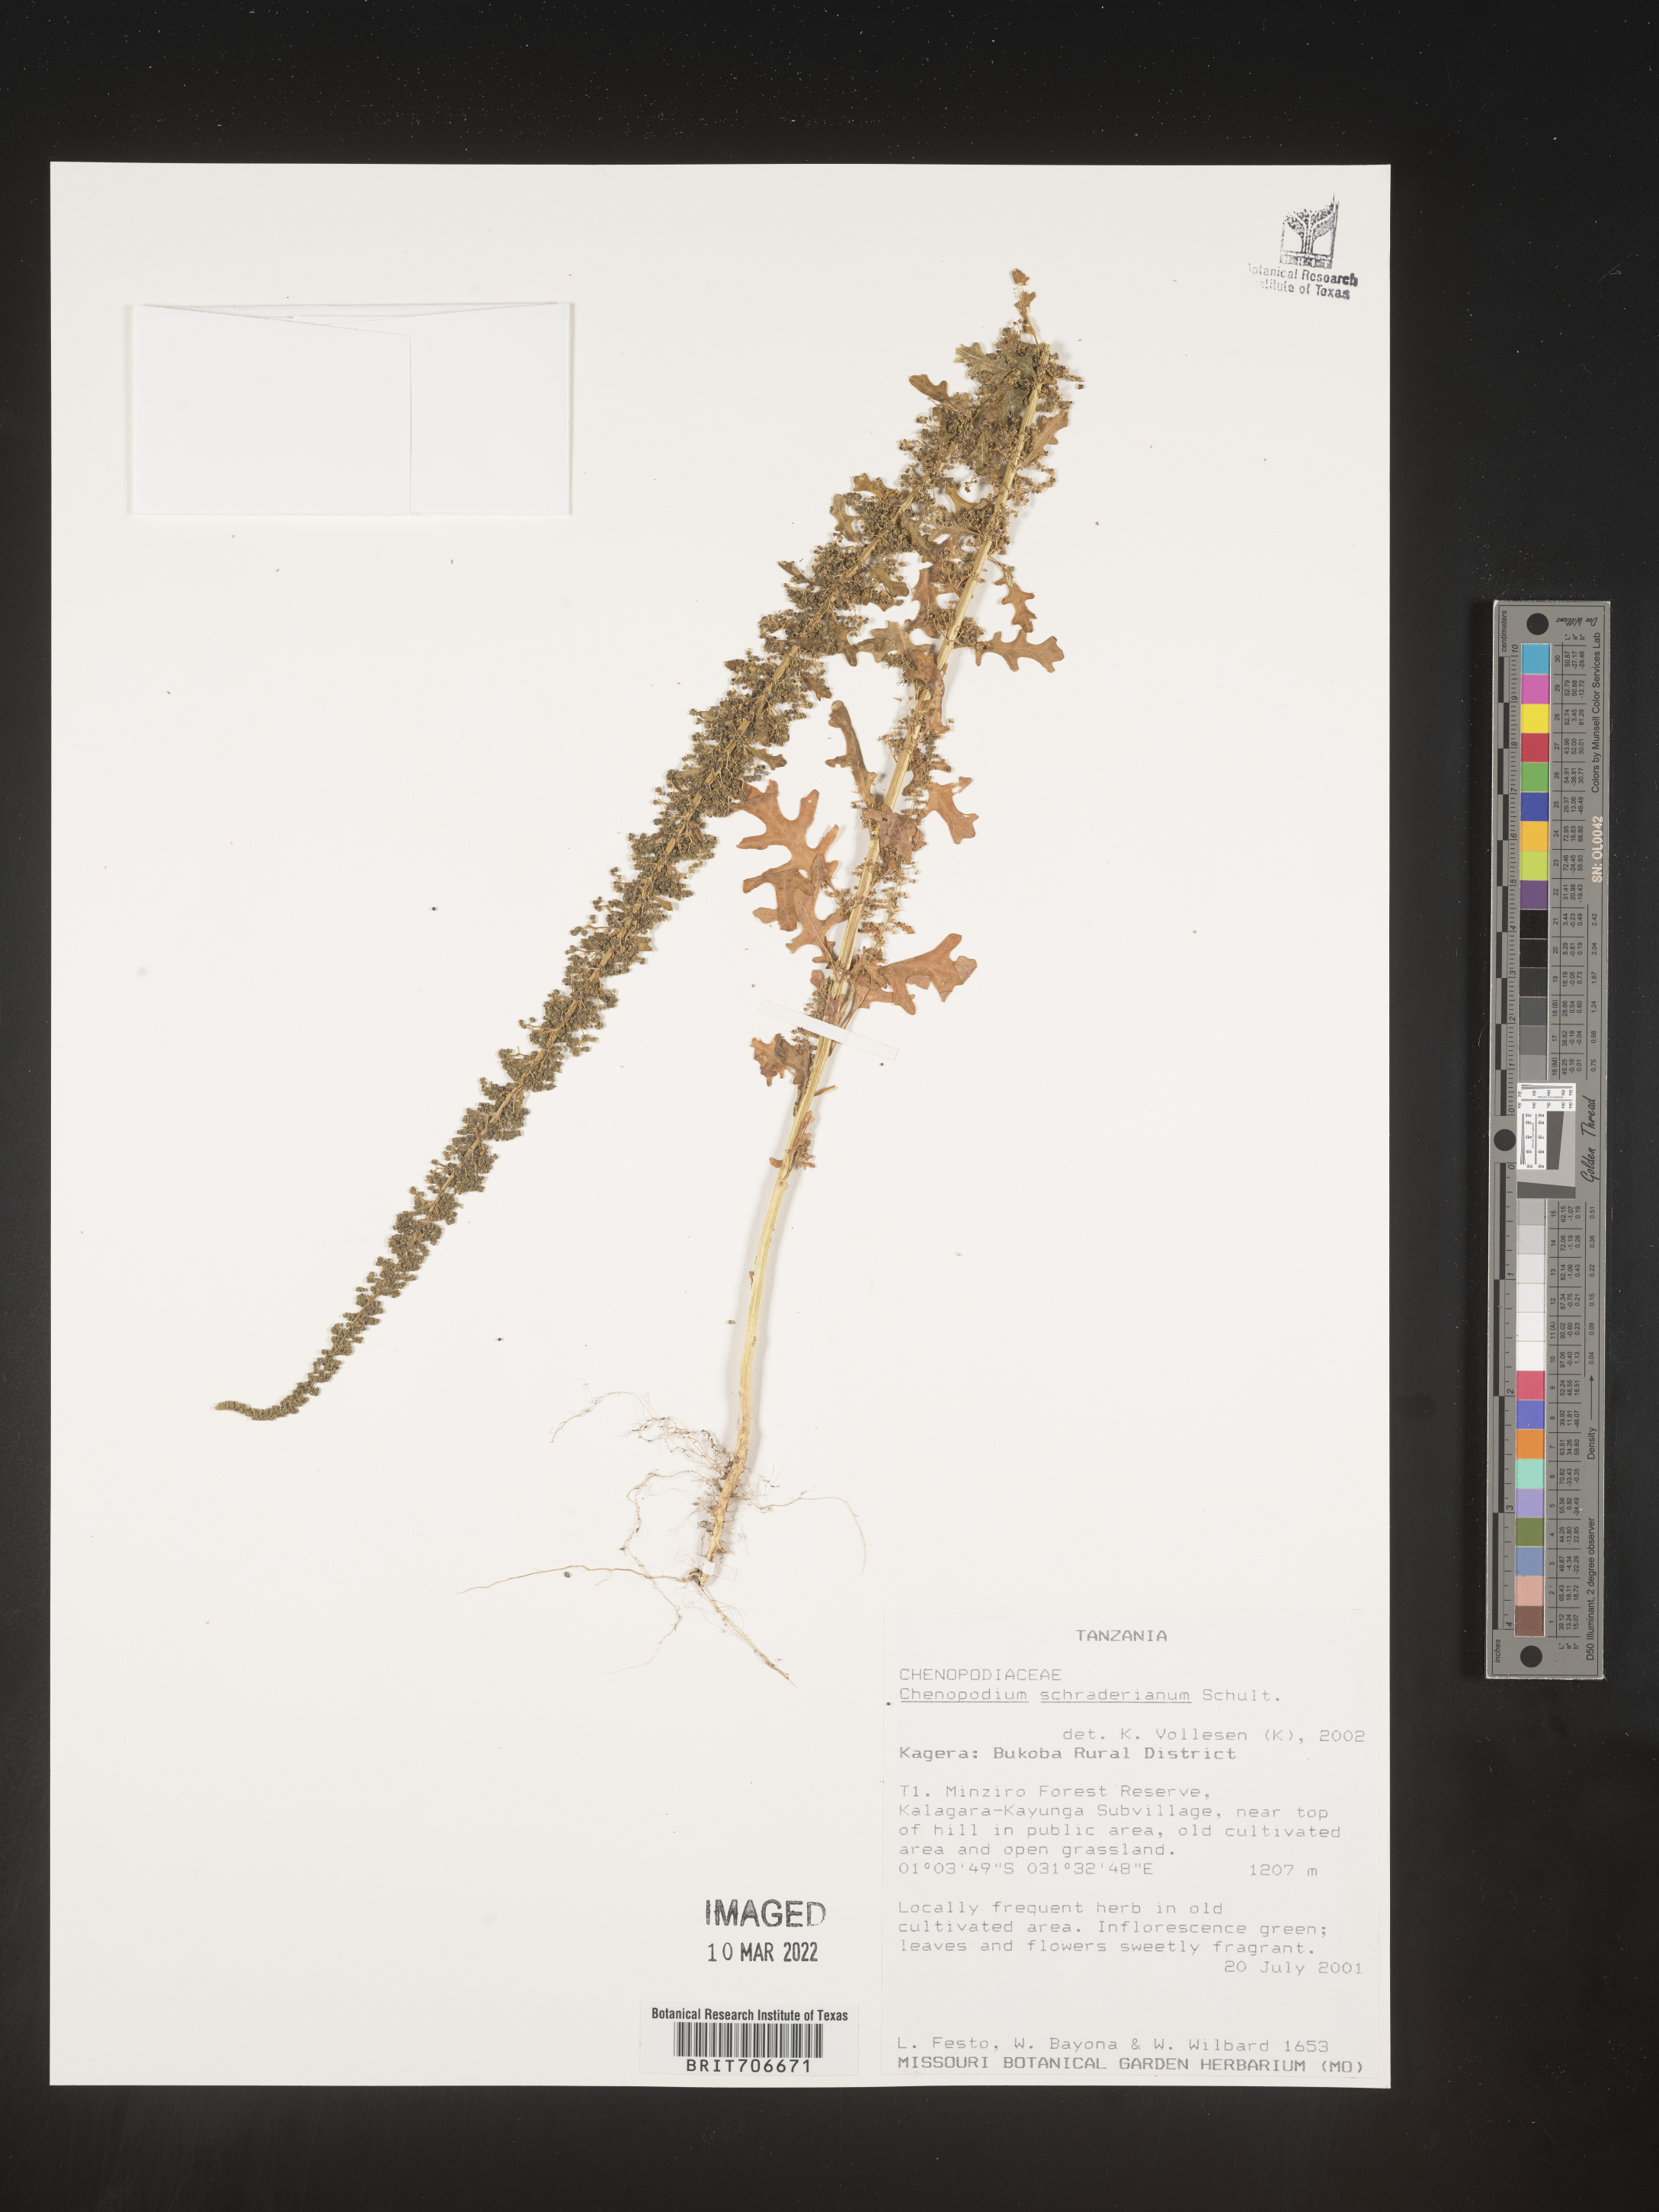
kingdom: Plantae
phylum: Tracheophyta
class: Magnoliopsida
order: Caryophyllales
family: Amaranthaceae
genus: Chenopodium
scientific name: Chenopodium
